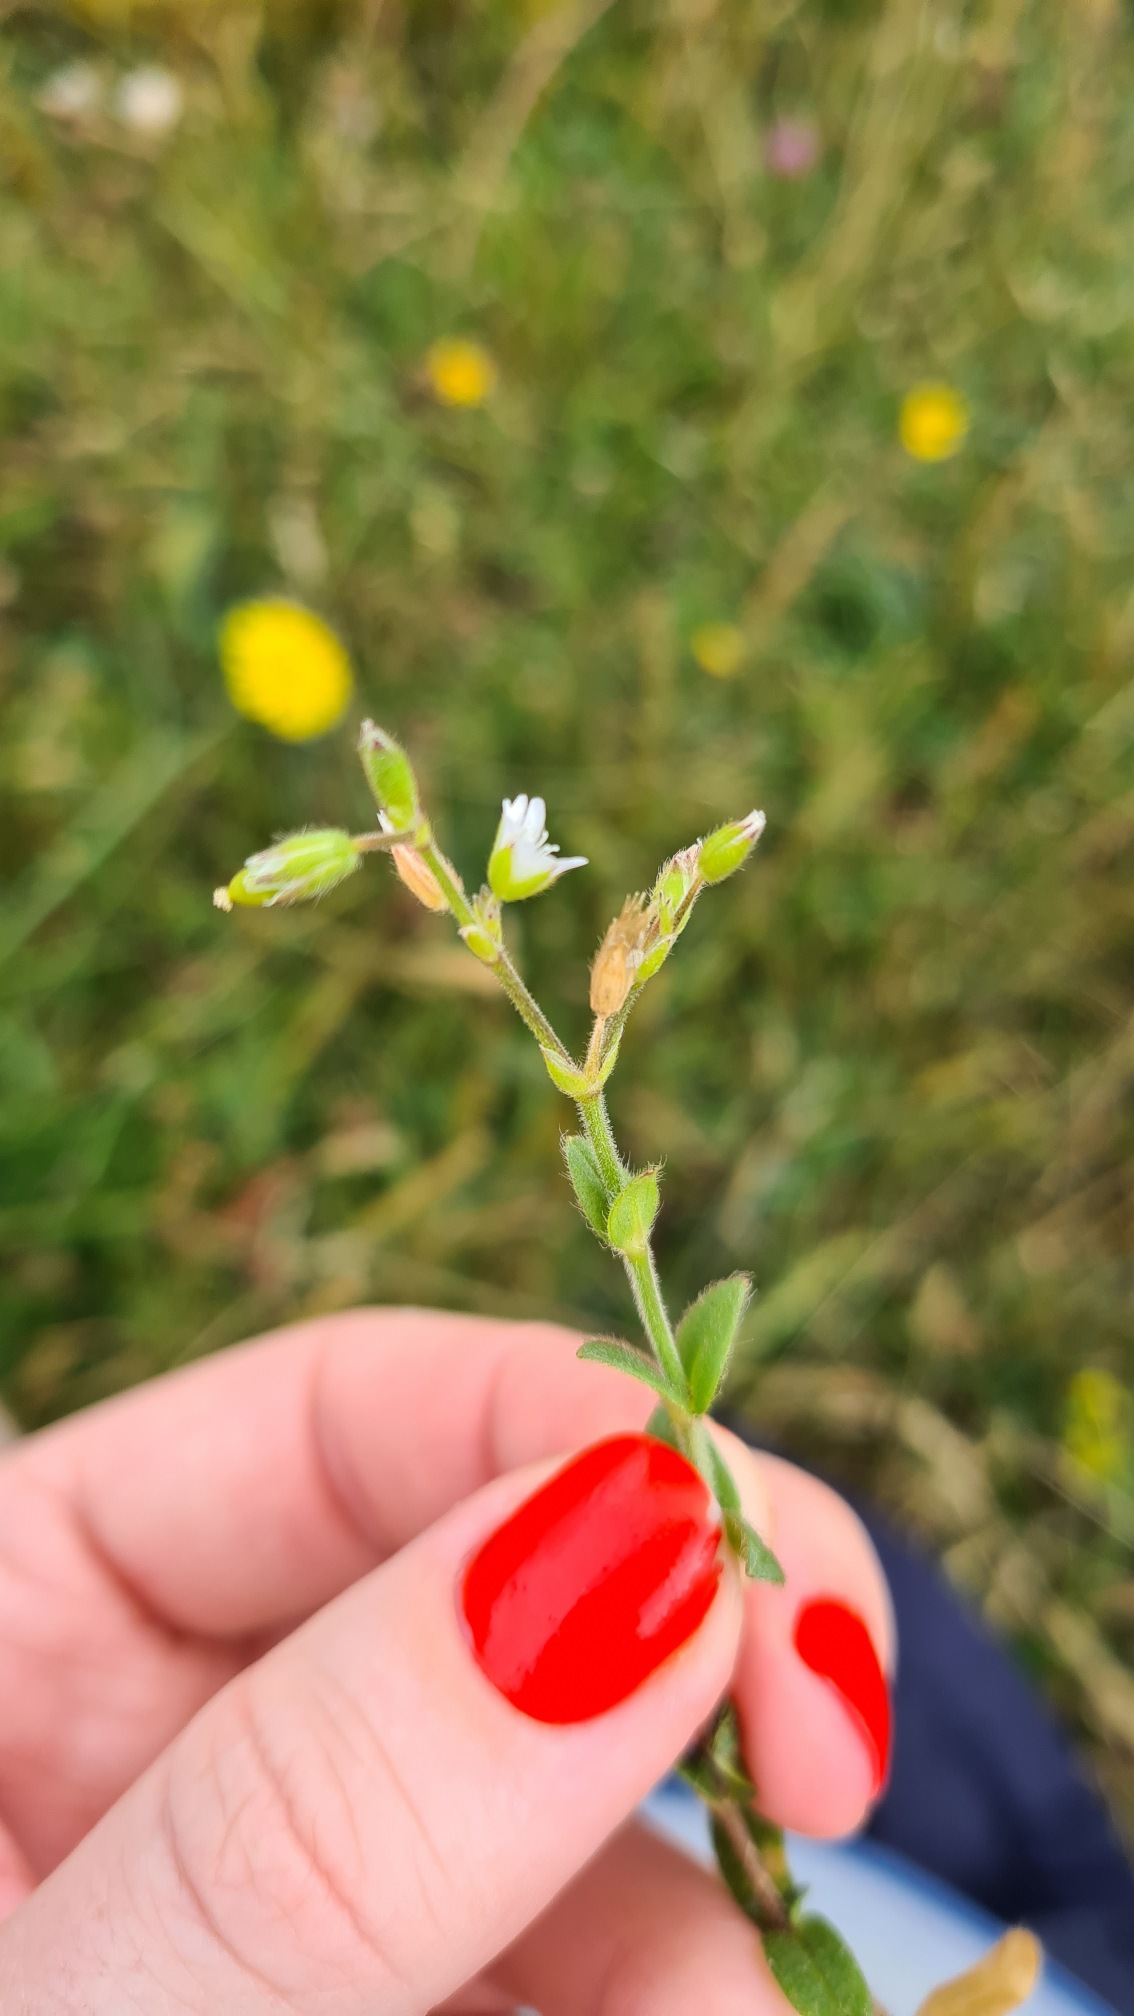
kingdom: Plantae
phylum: Tracheophyta
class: Magnoliopsida
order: Caryophyllales
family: Caryophyllaceae
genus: Cerastium
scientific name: Cerastium fontanum
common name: Almindelig hønsetarm
